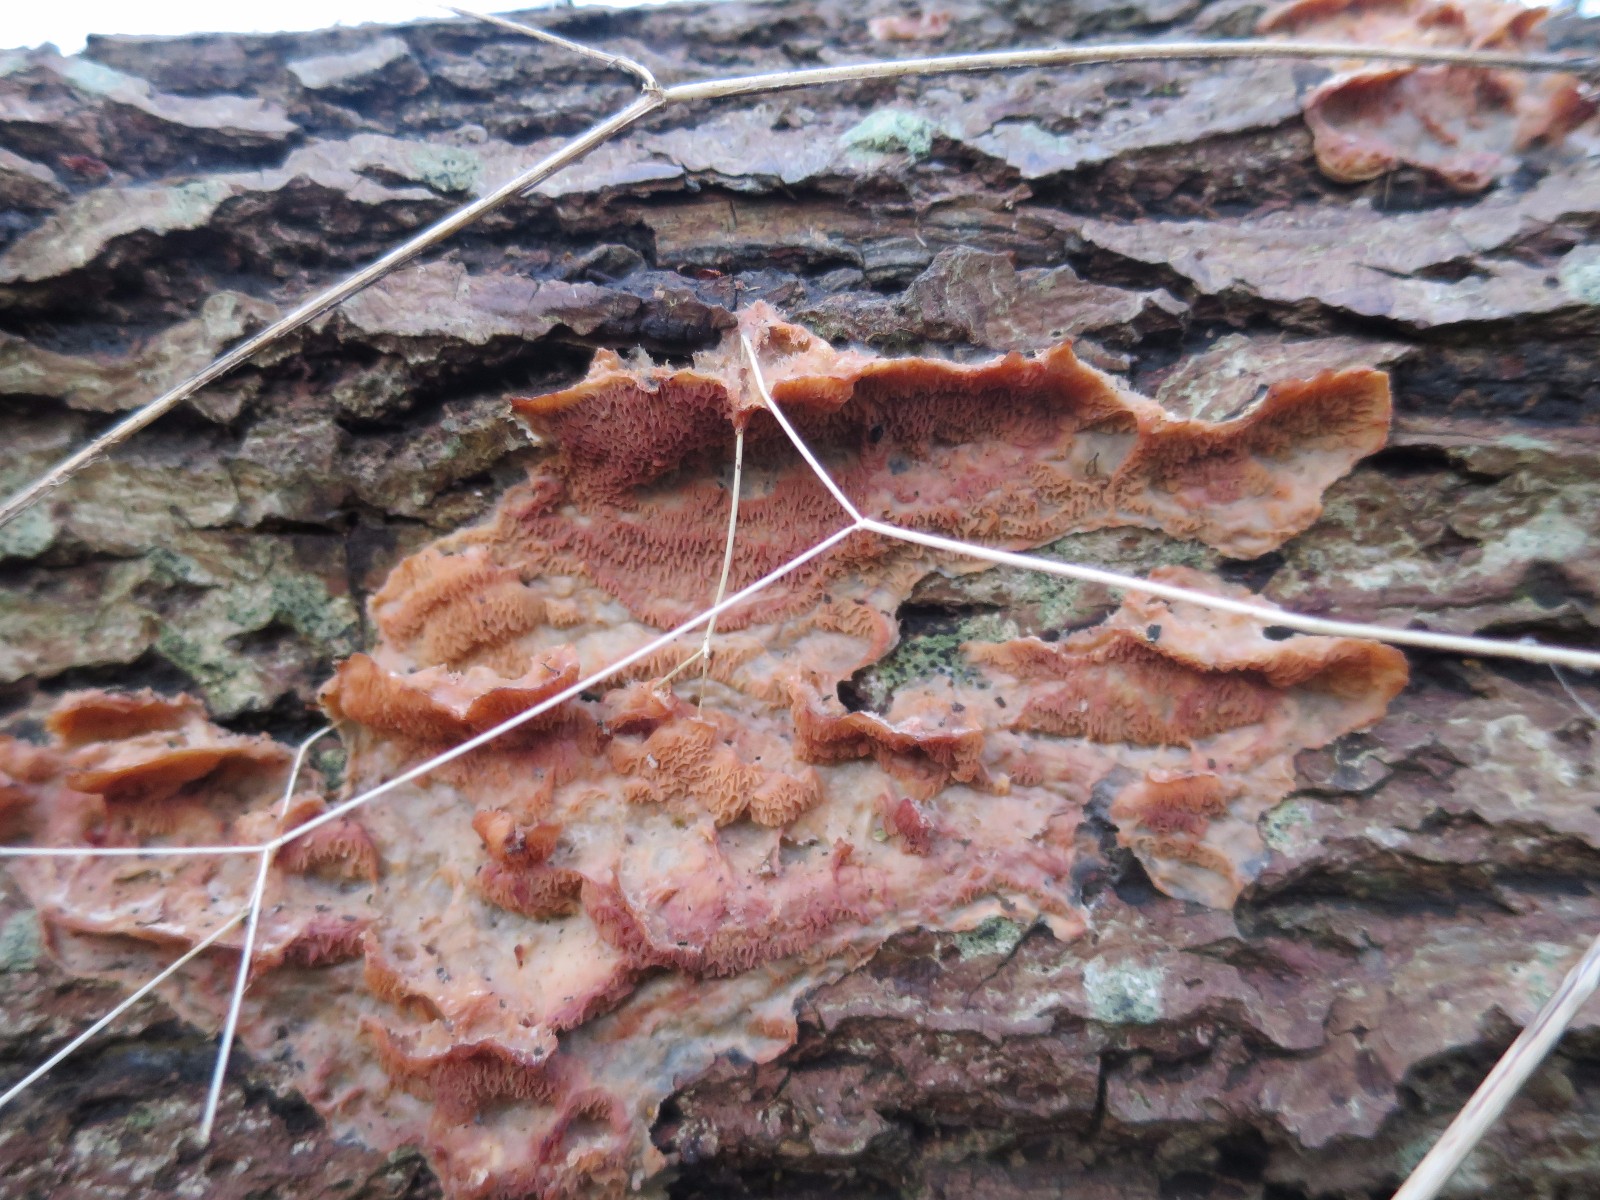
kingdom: Fungi
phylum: Basidiomycota
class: Agaricomycetes
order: Polyporales
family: Meruliaceae
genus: Phlebia
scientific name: Phlebia tremellosa
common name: bævrende åresvamp
